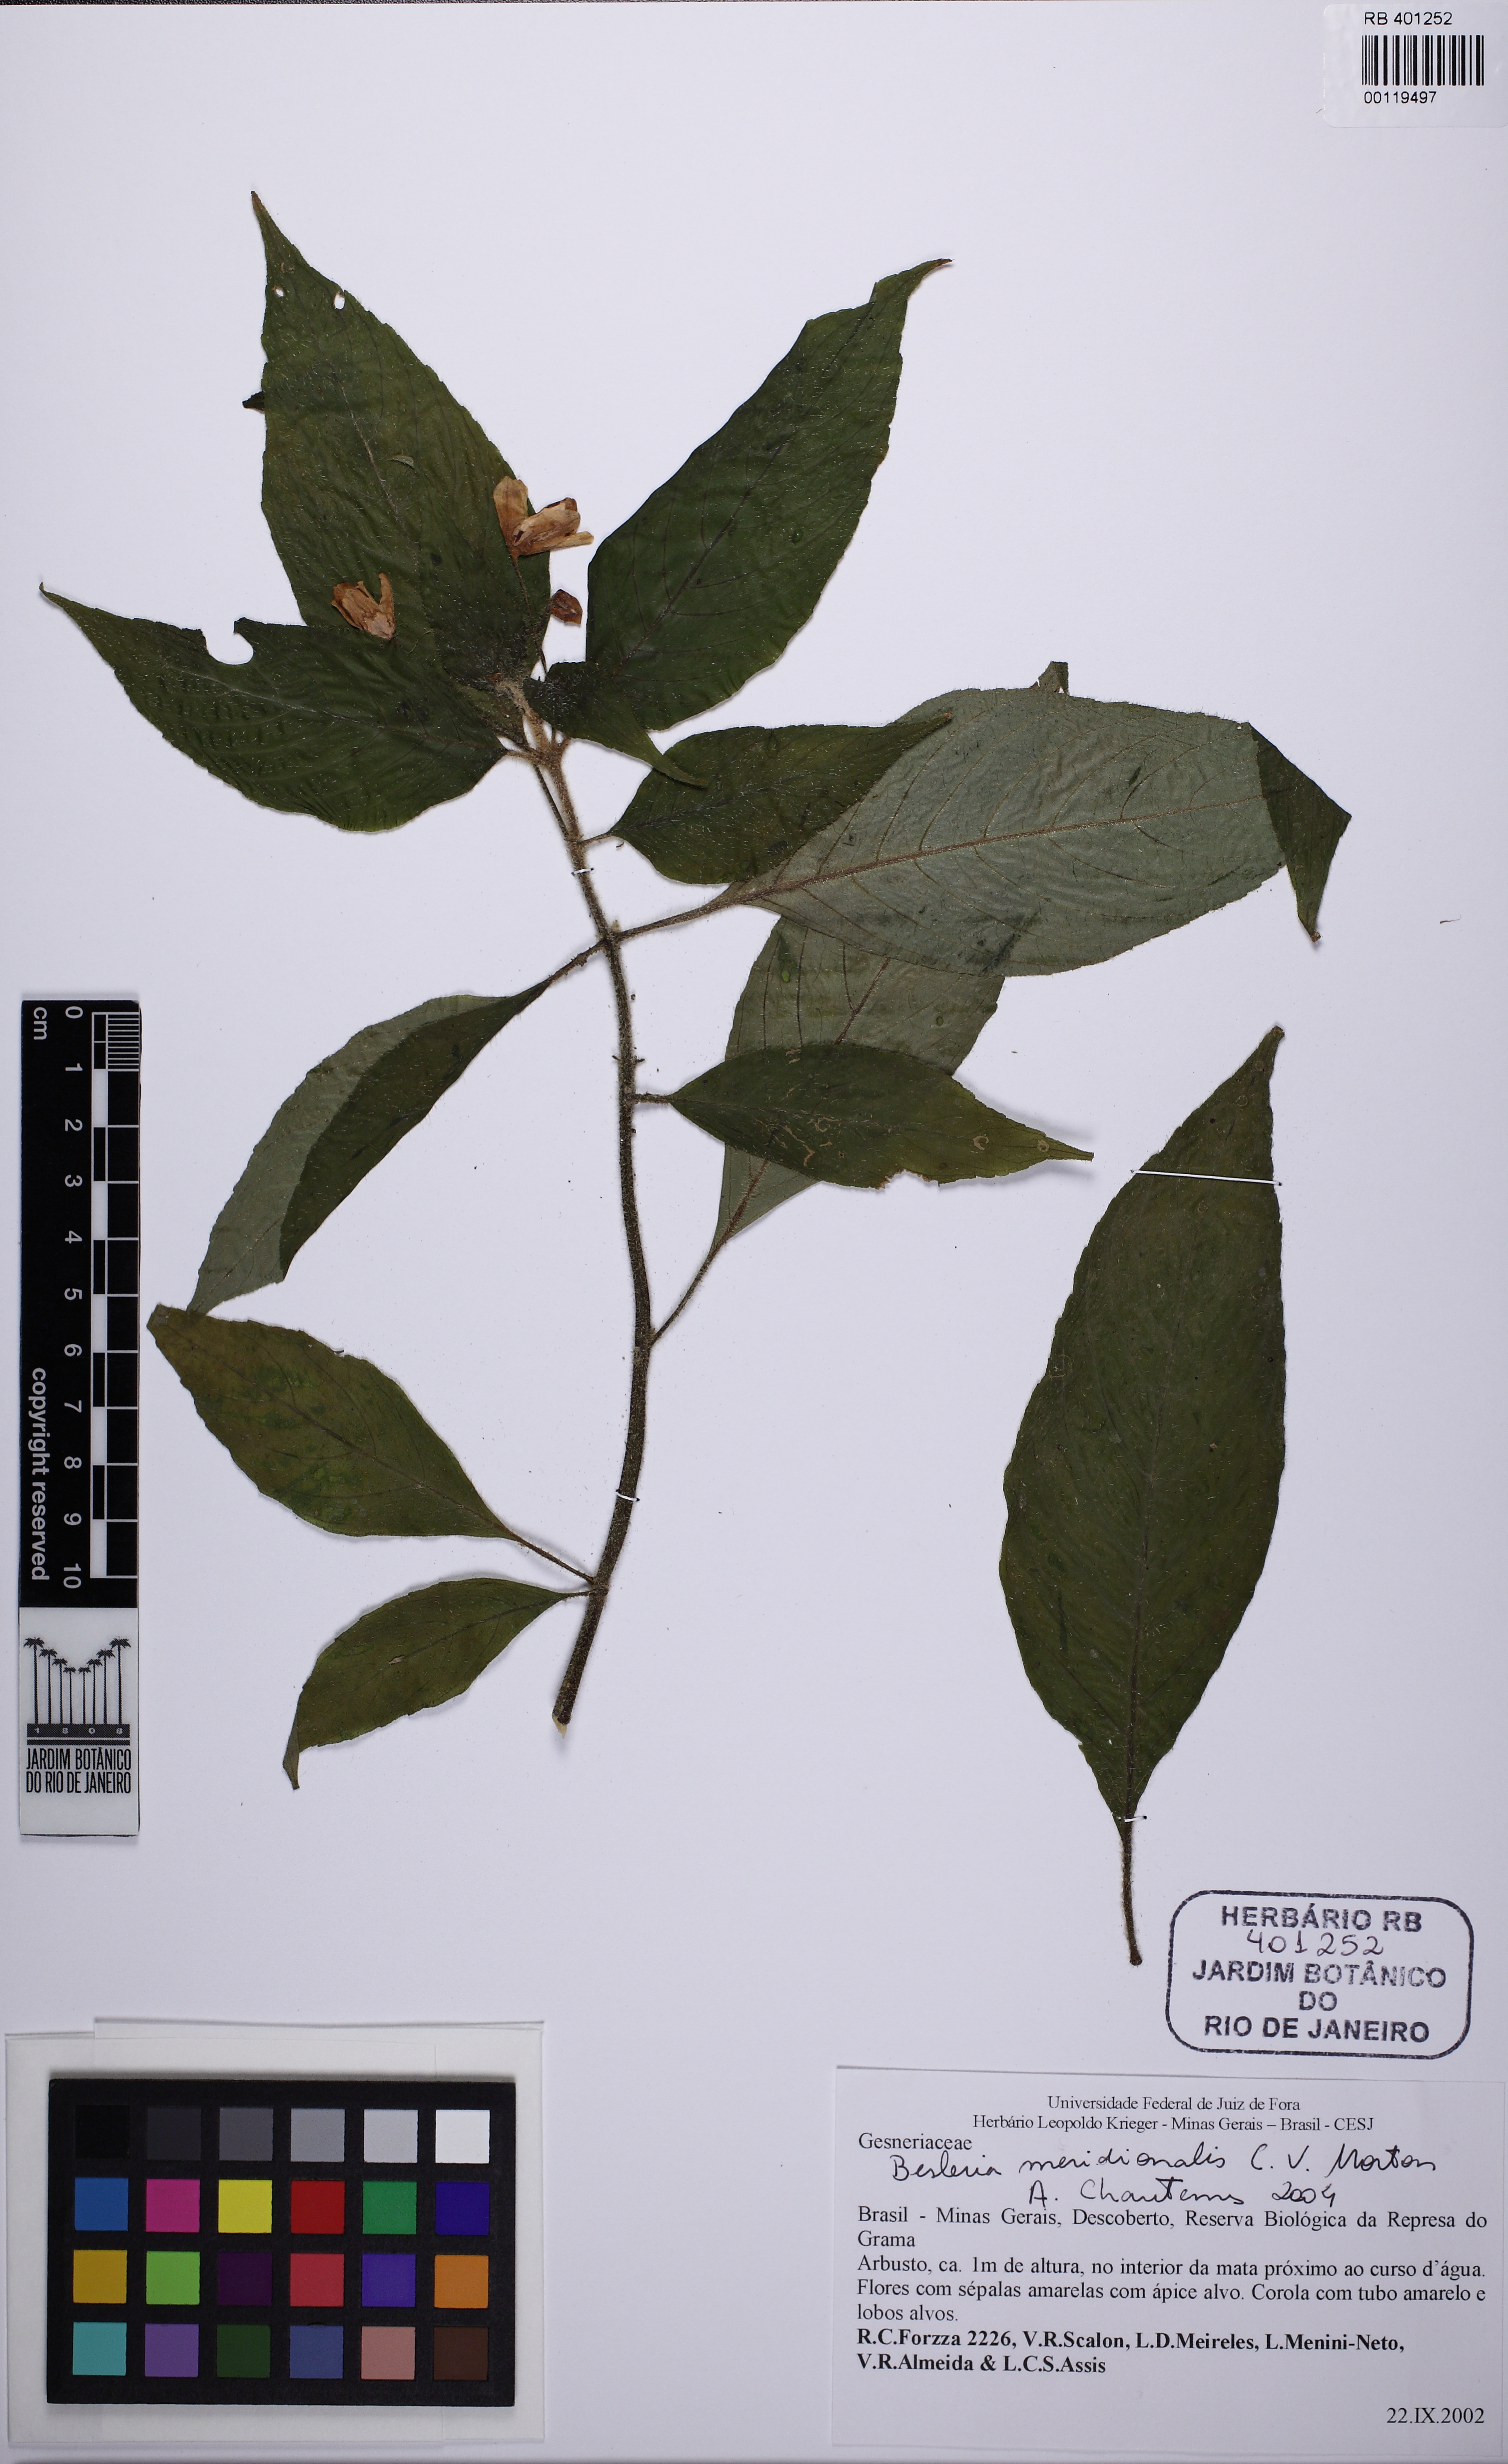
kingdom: Plantae
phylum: Tracheophyta
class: Magnoliopsida
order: Lamiales
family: Gesneriaceae
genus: Besleria
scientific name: Besleria meridionalis
